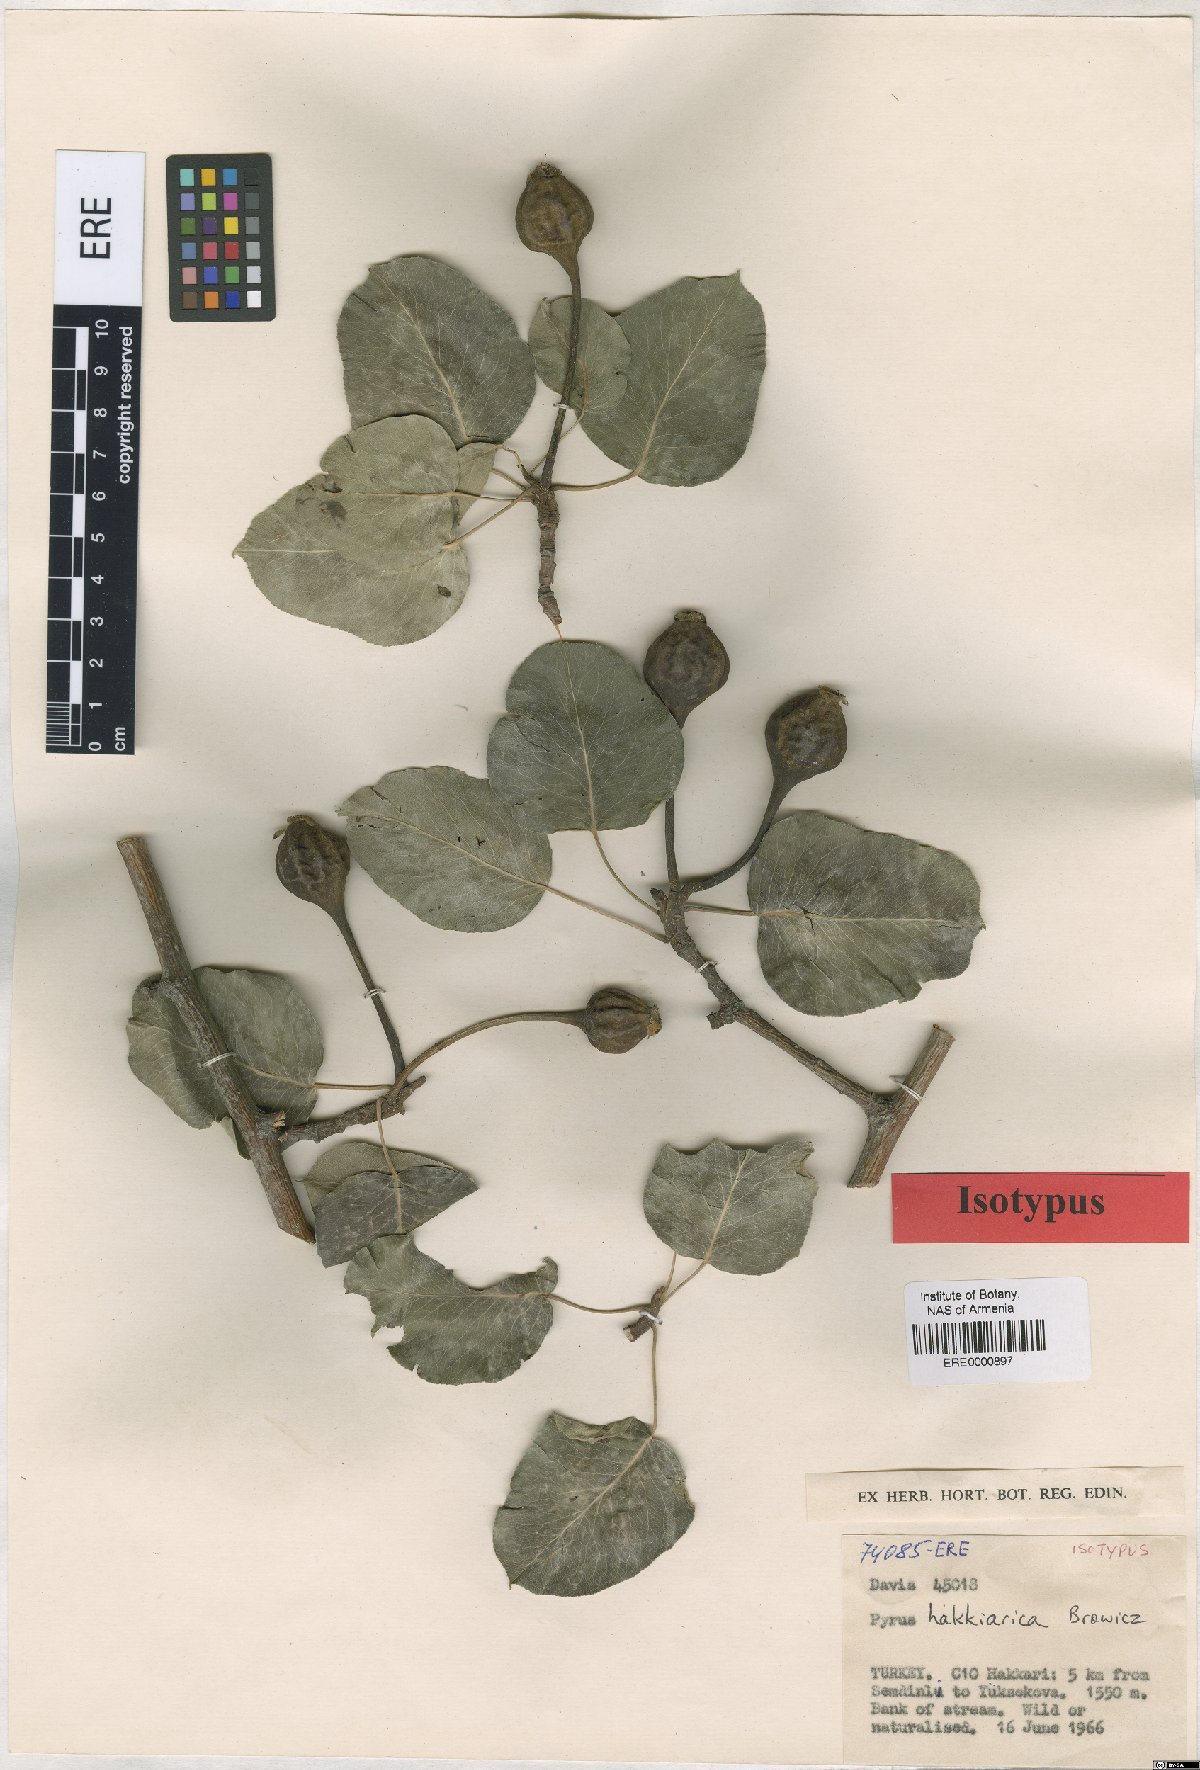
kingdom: Plantae
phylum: Tracheophyta
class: Magnoliopsida
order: Rosales
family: Rosaceae
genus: Pyrus
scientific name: Pyrus hakkiarica
